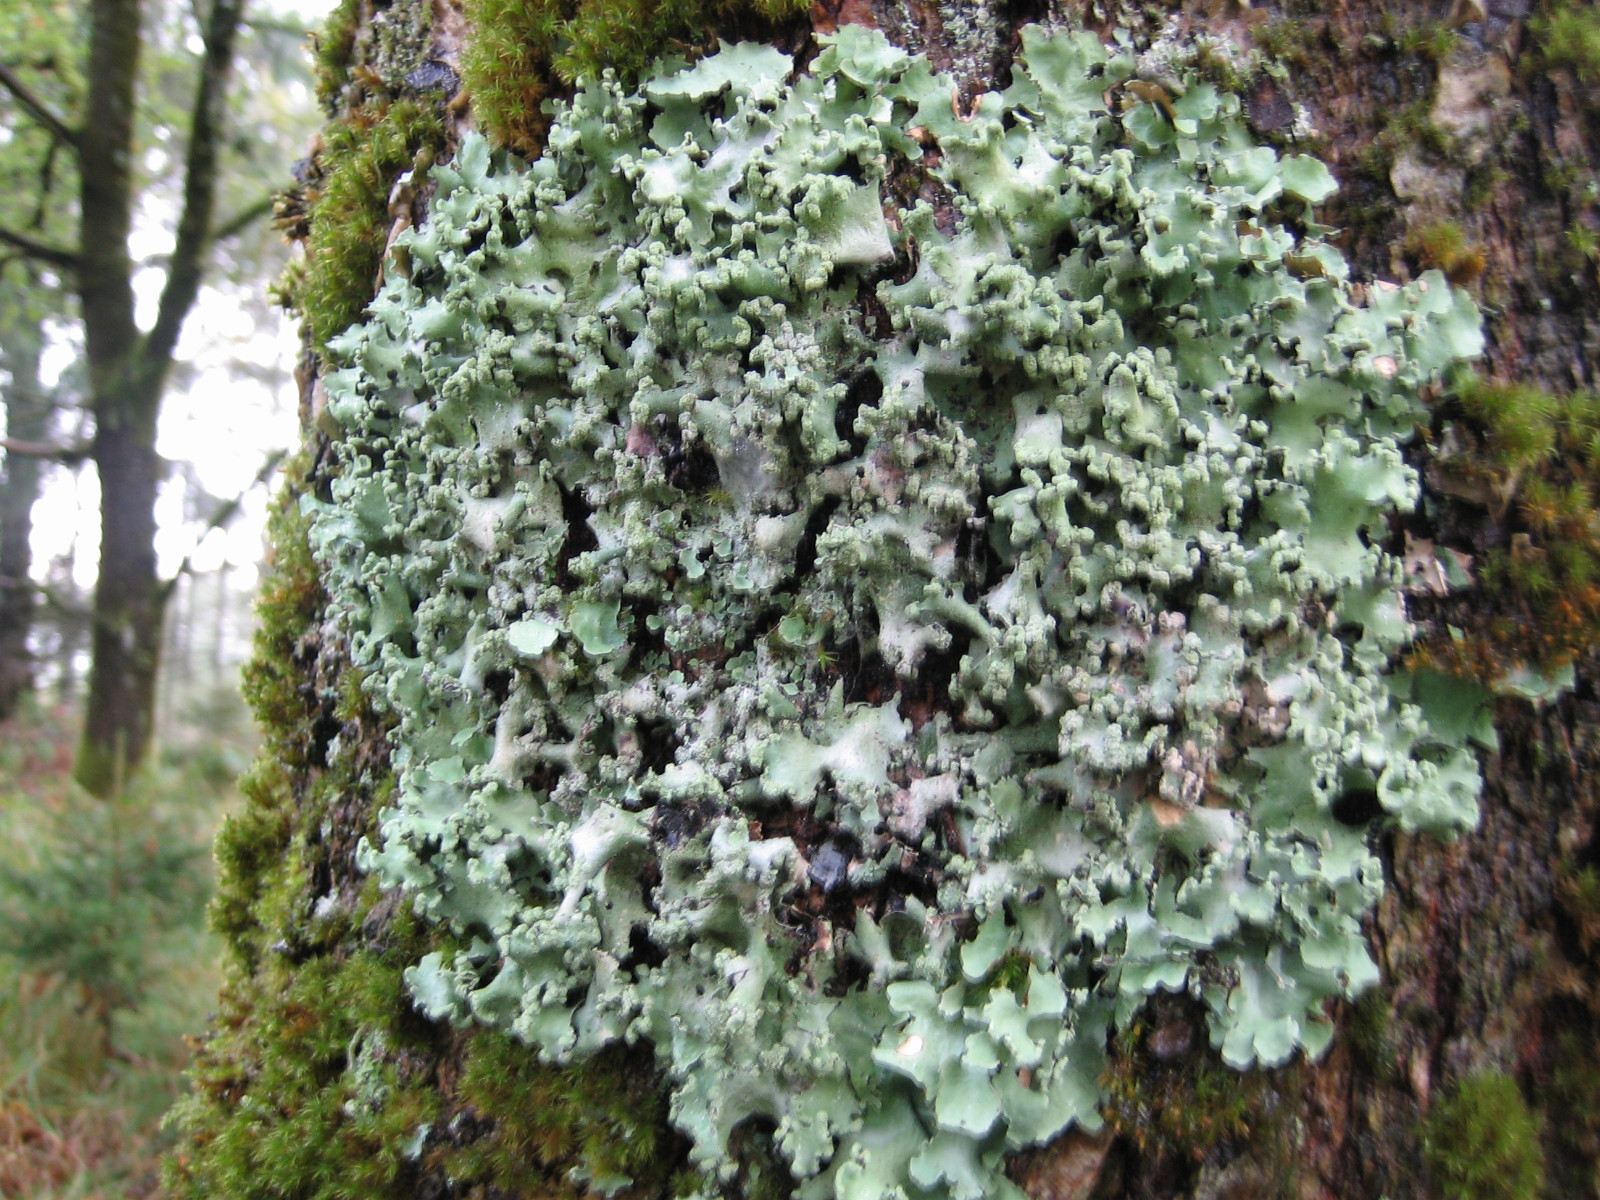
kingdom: Fungi
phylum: Ascomycota
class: Lecanoromycetes
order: Lecanorales
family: Parmeliaceae
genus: Parmotrema
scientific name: Parmotrema perlatum
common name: trådet skållav
